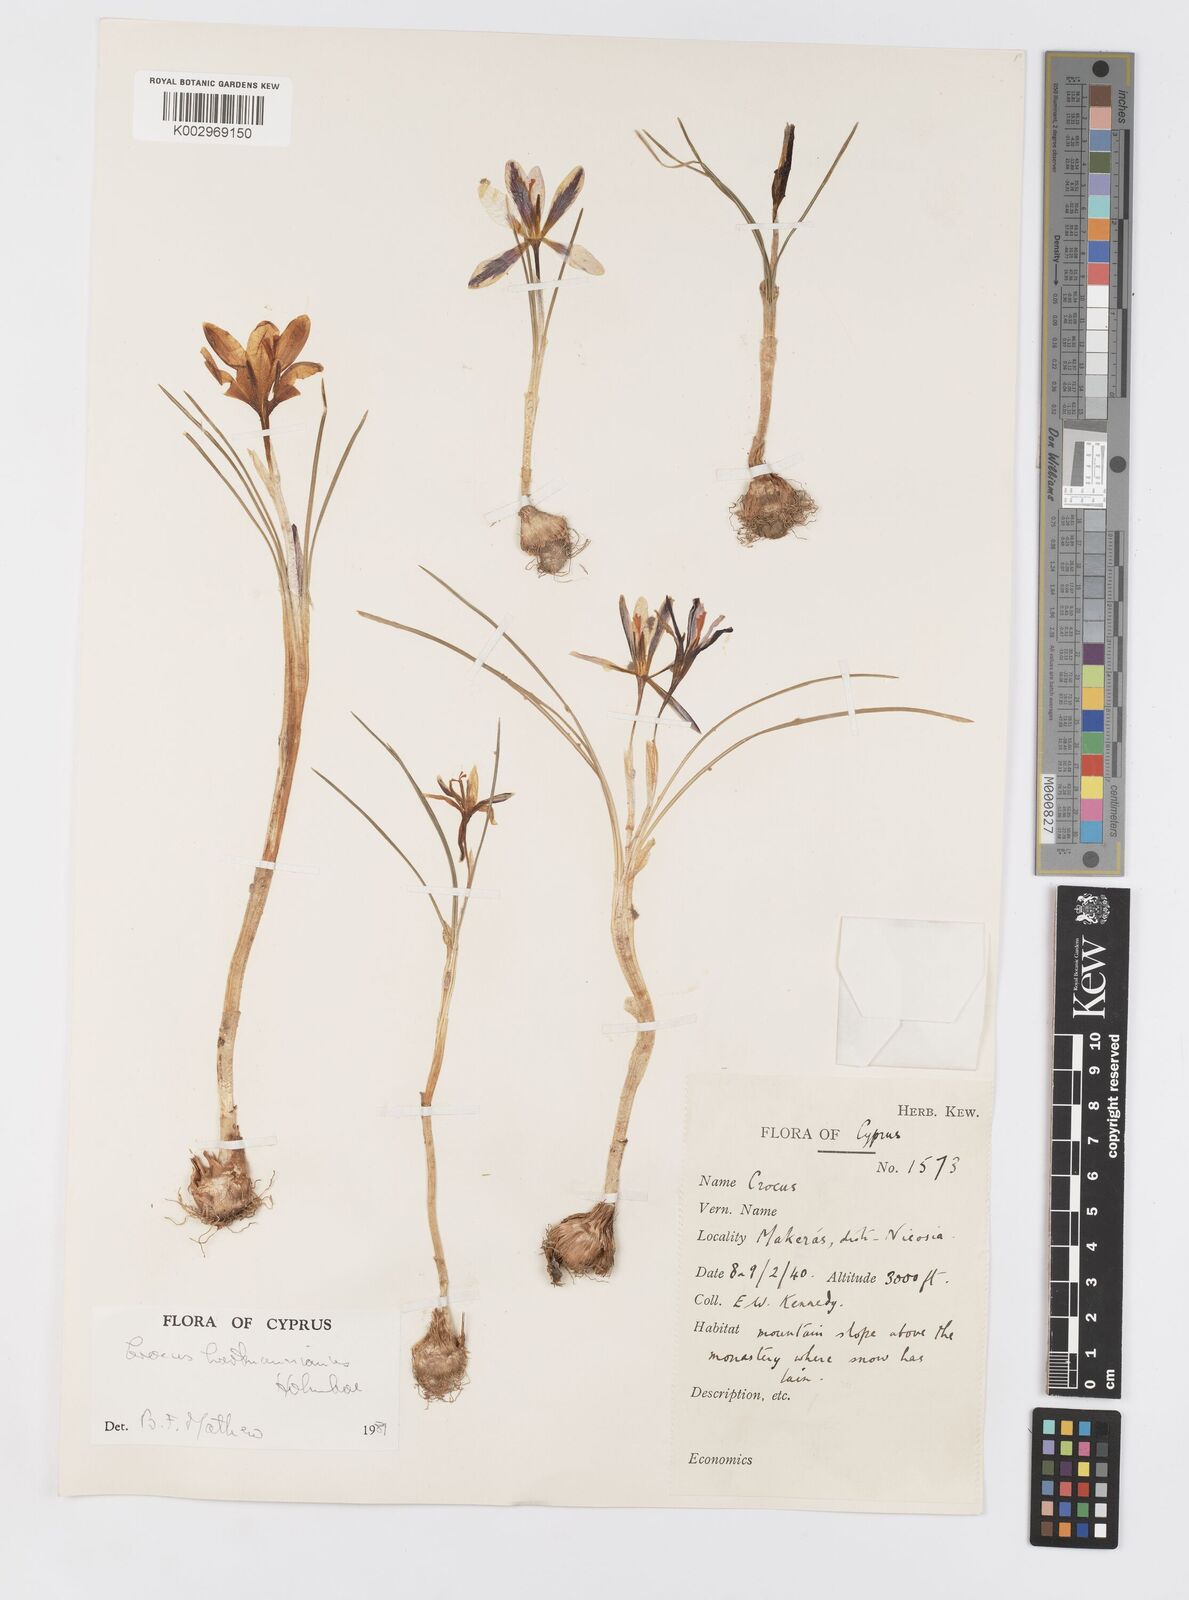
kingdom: Plantae
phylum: Tracheophyta
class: Liliopsida
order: Asparagales
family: Iridaceae
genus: Crocus
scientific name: Crocus hartmannianus
